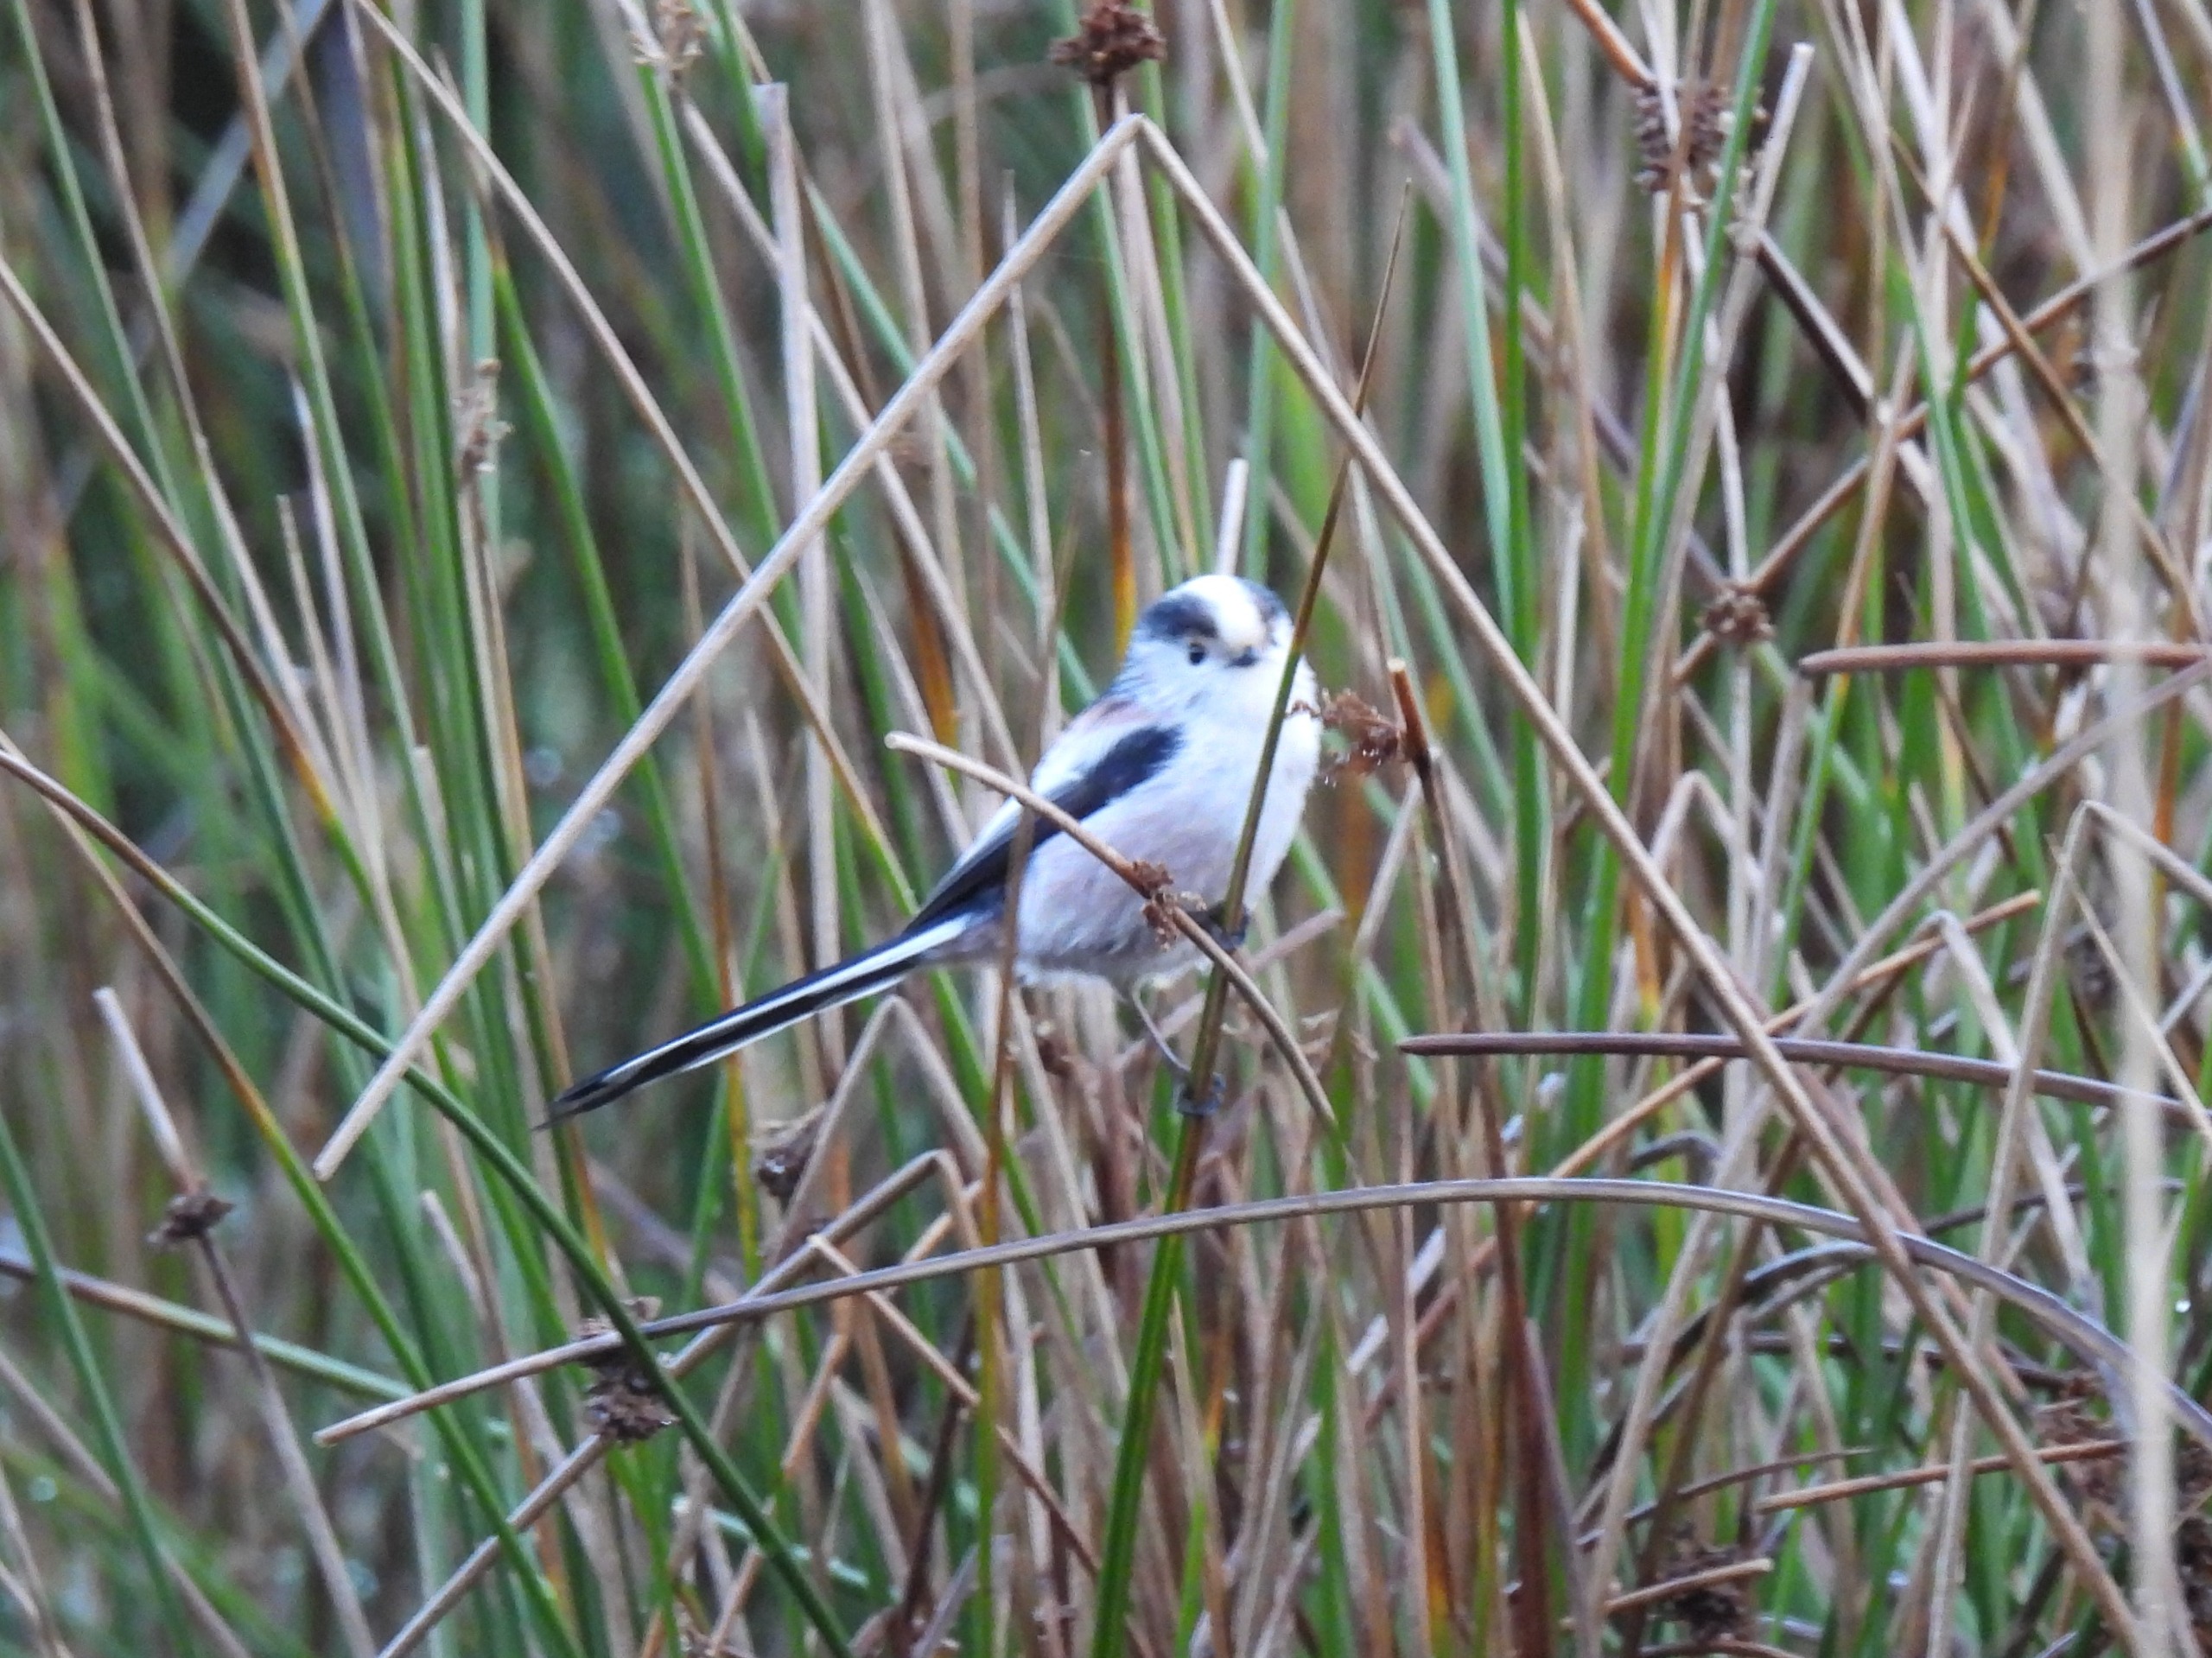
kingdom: Animalia
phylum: Chordata
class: Aves
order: Passeriformes
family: Aegithalidae
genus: Aegithalos
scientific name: Aegithalos caudatus
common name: Halemejse
